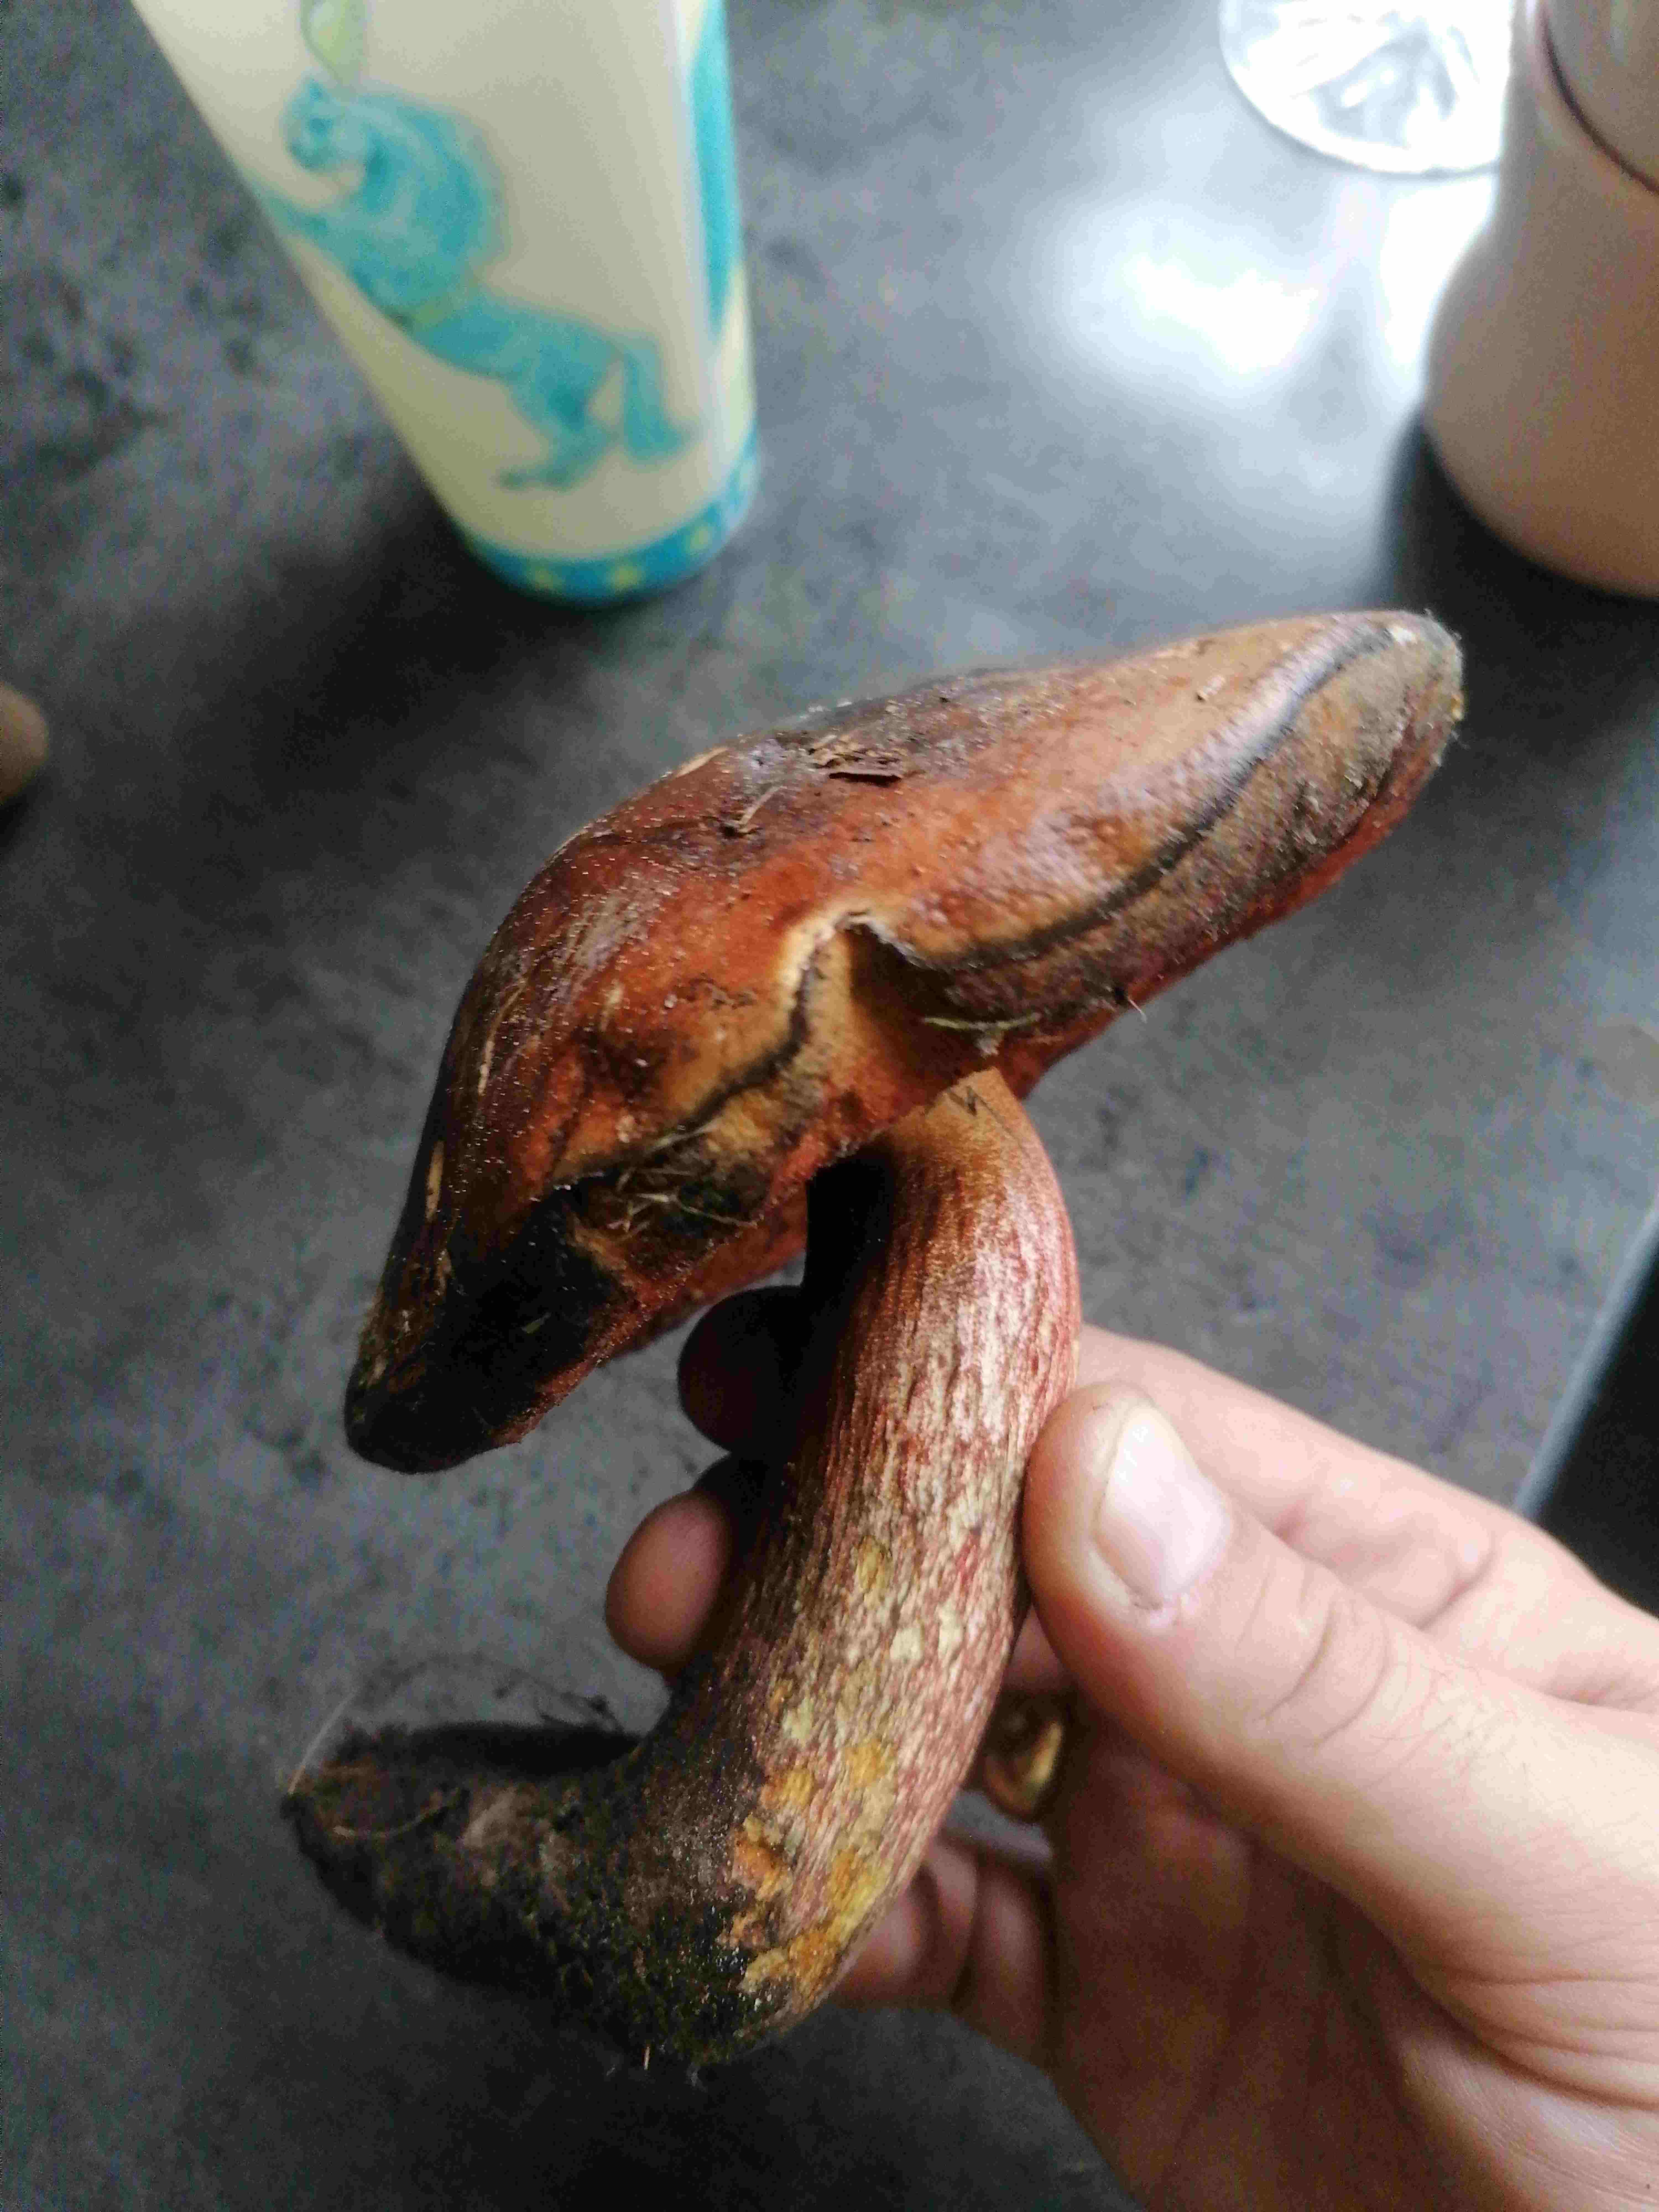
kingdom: Fungi
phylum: Basidiomycota
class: Agaricomycetes
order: Boletales
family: Boletaceae
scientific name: Boletaceae
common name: rørhatfamilien
